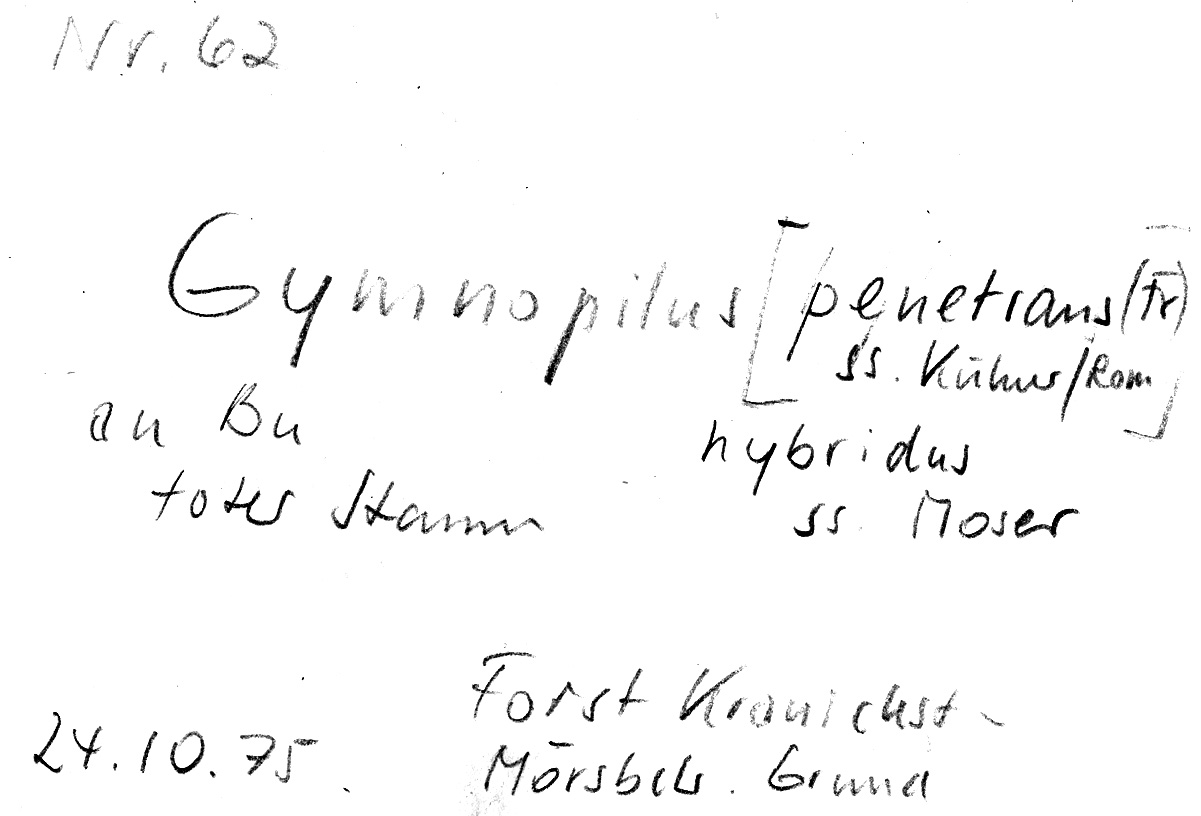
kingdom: Plantae
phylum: Tracheophyta
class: Magnoliopsida
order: Fagales
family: Fagaceae
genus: Fagus
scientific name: Fagus sylvatica
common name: Beech
